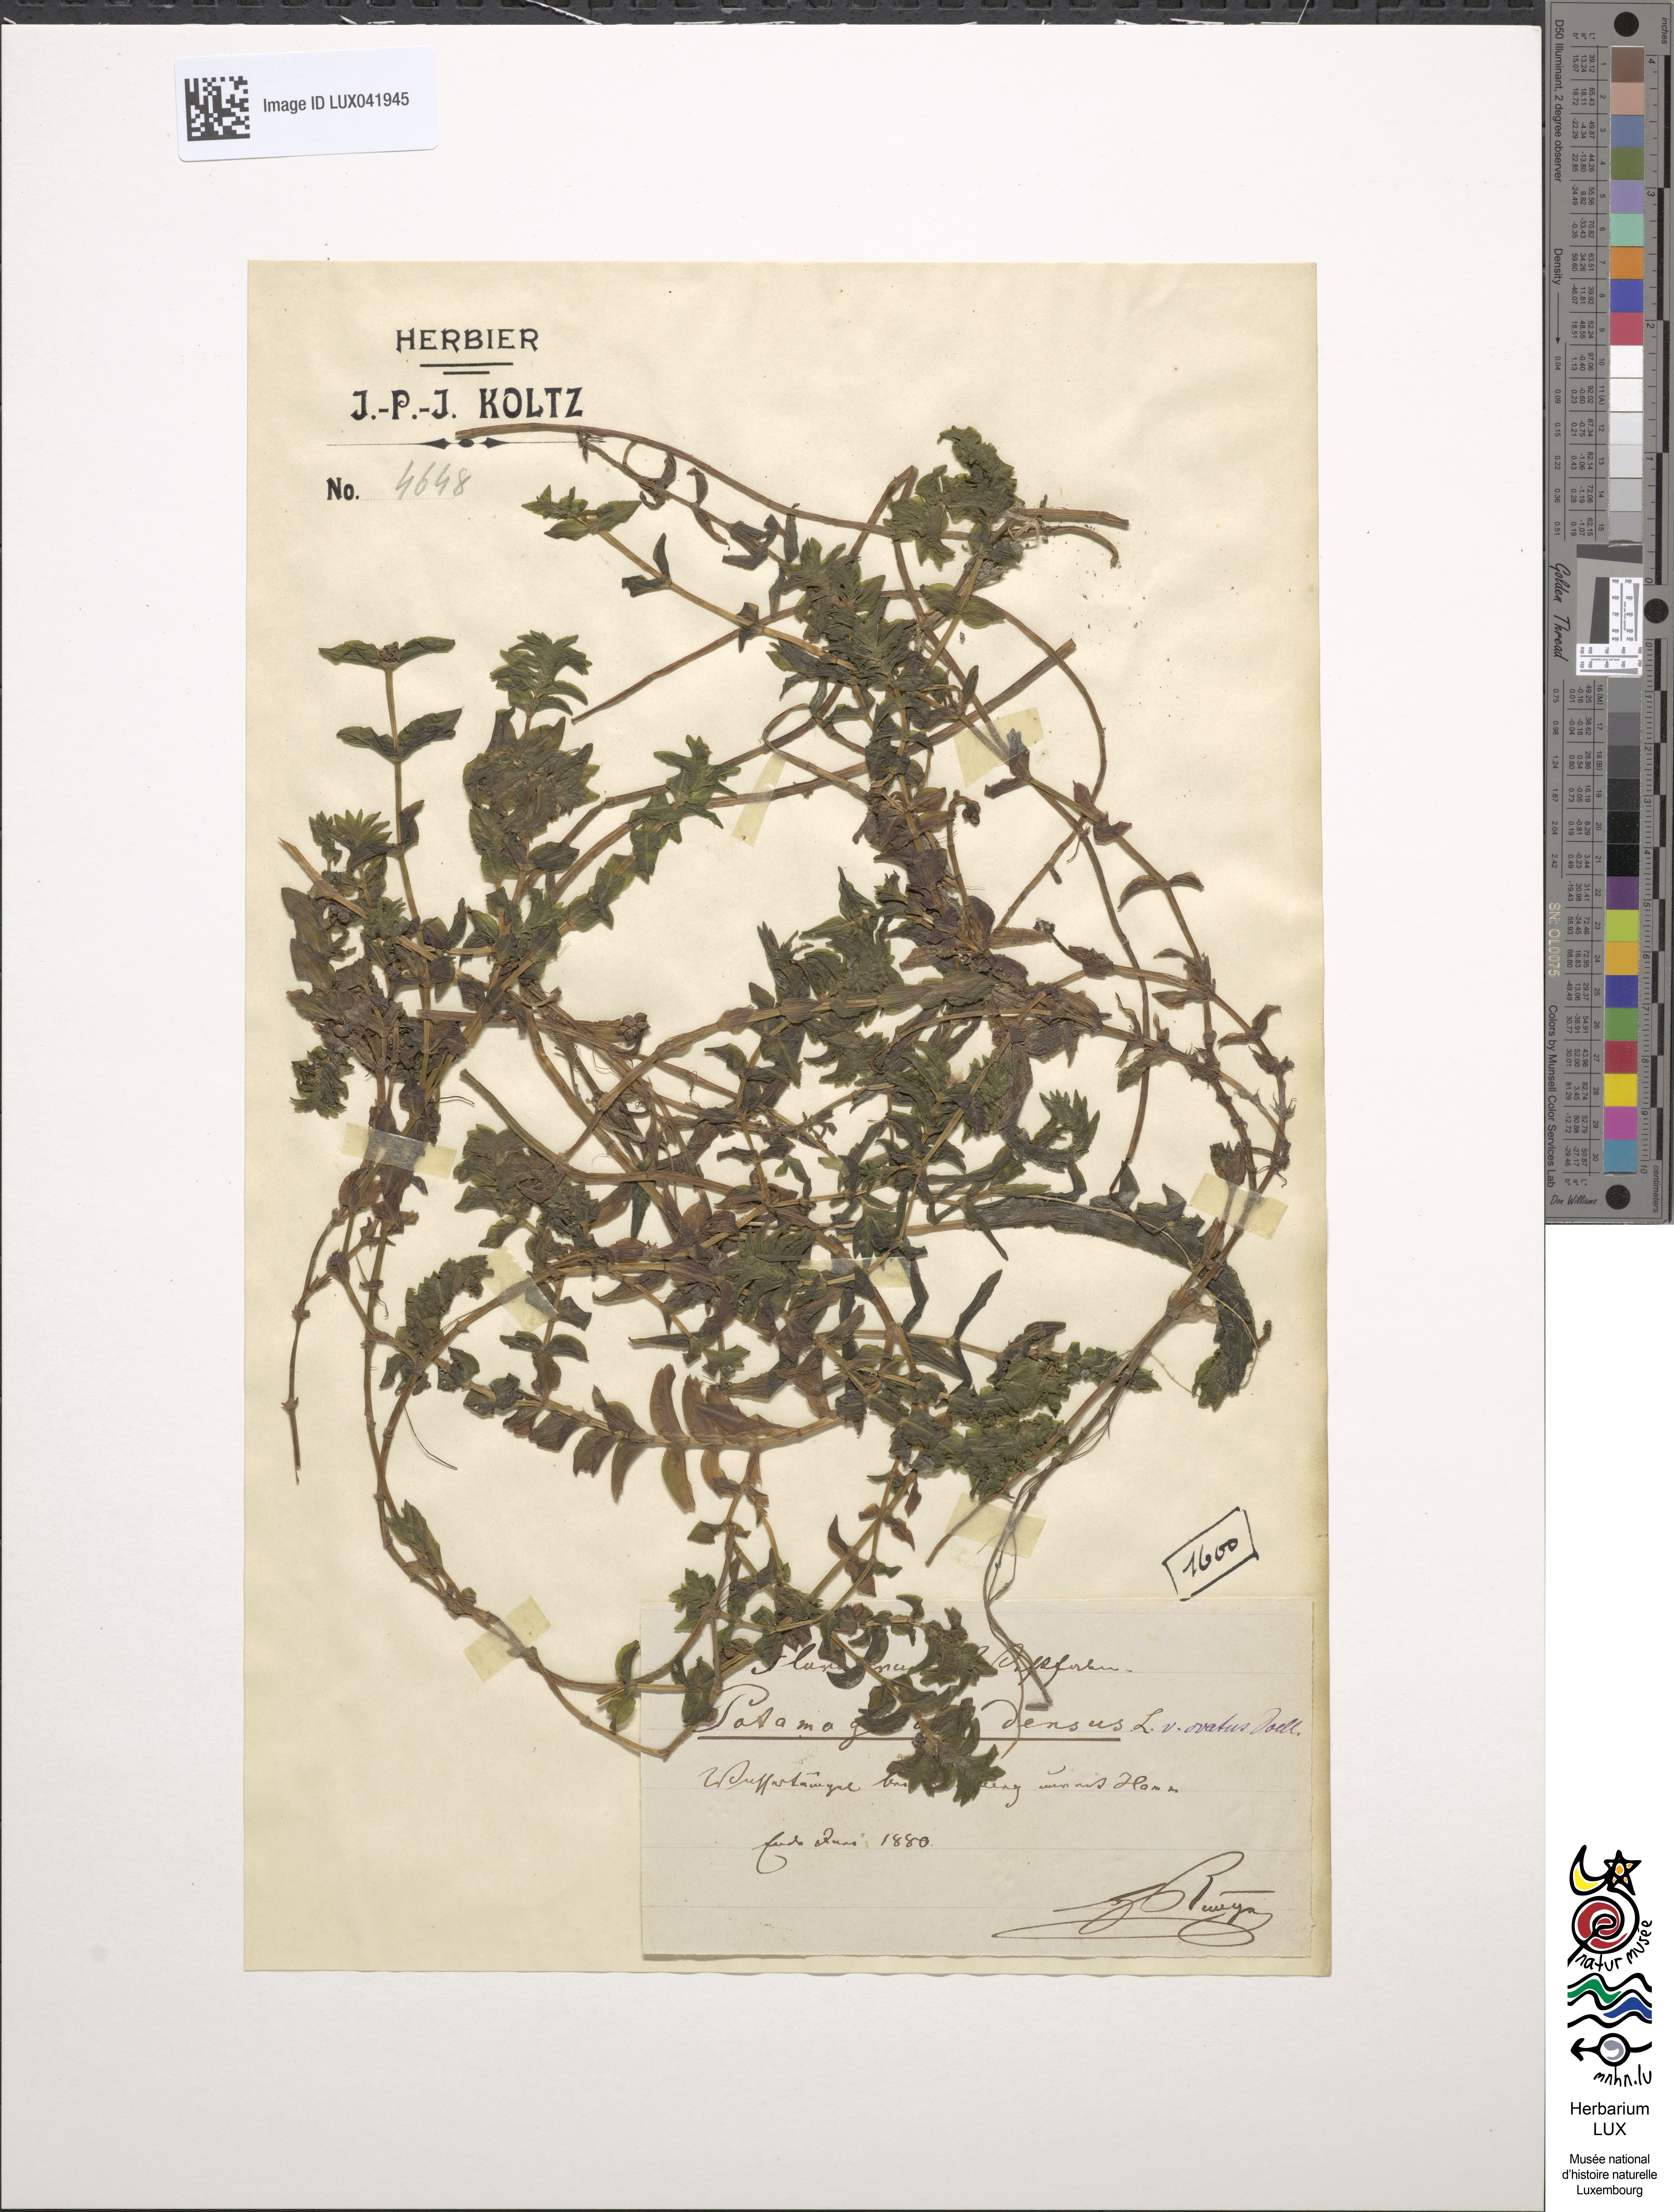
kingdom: Plantae
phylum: Tracheophyta
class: Liliopsida
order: Alismatales
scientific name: Alismatales
